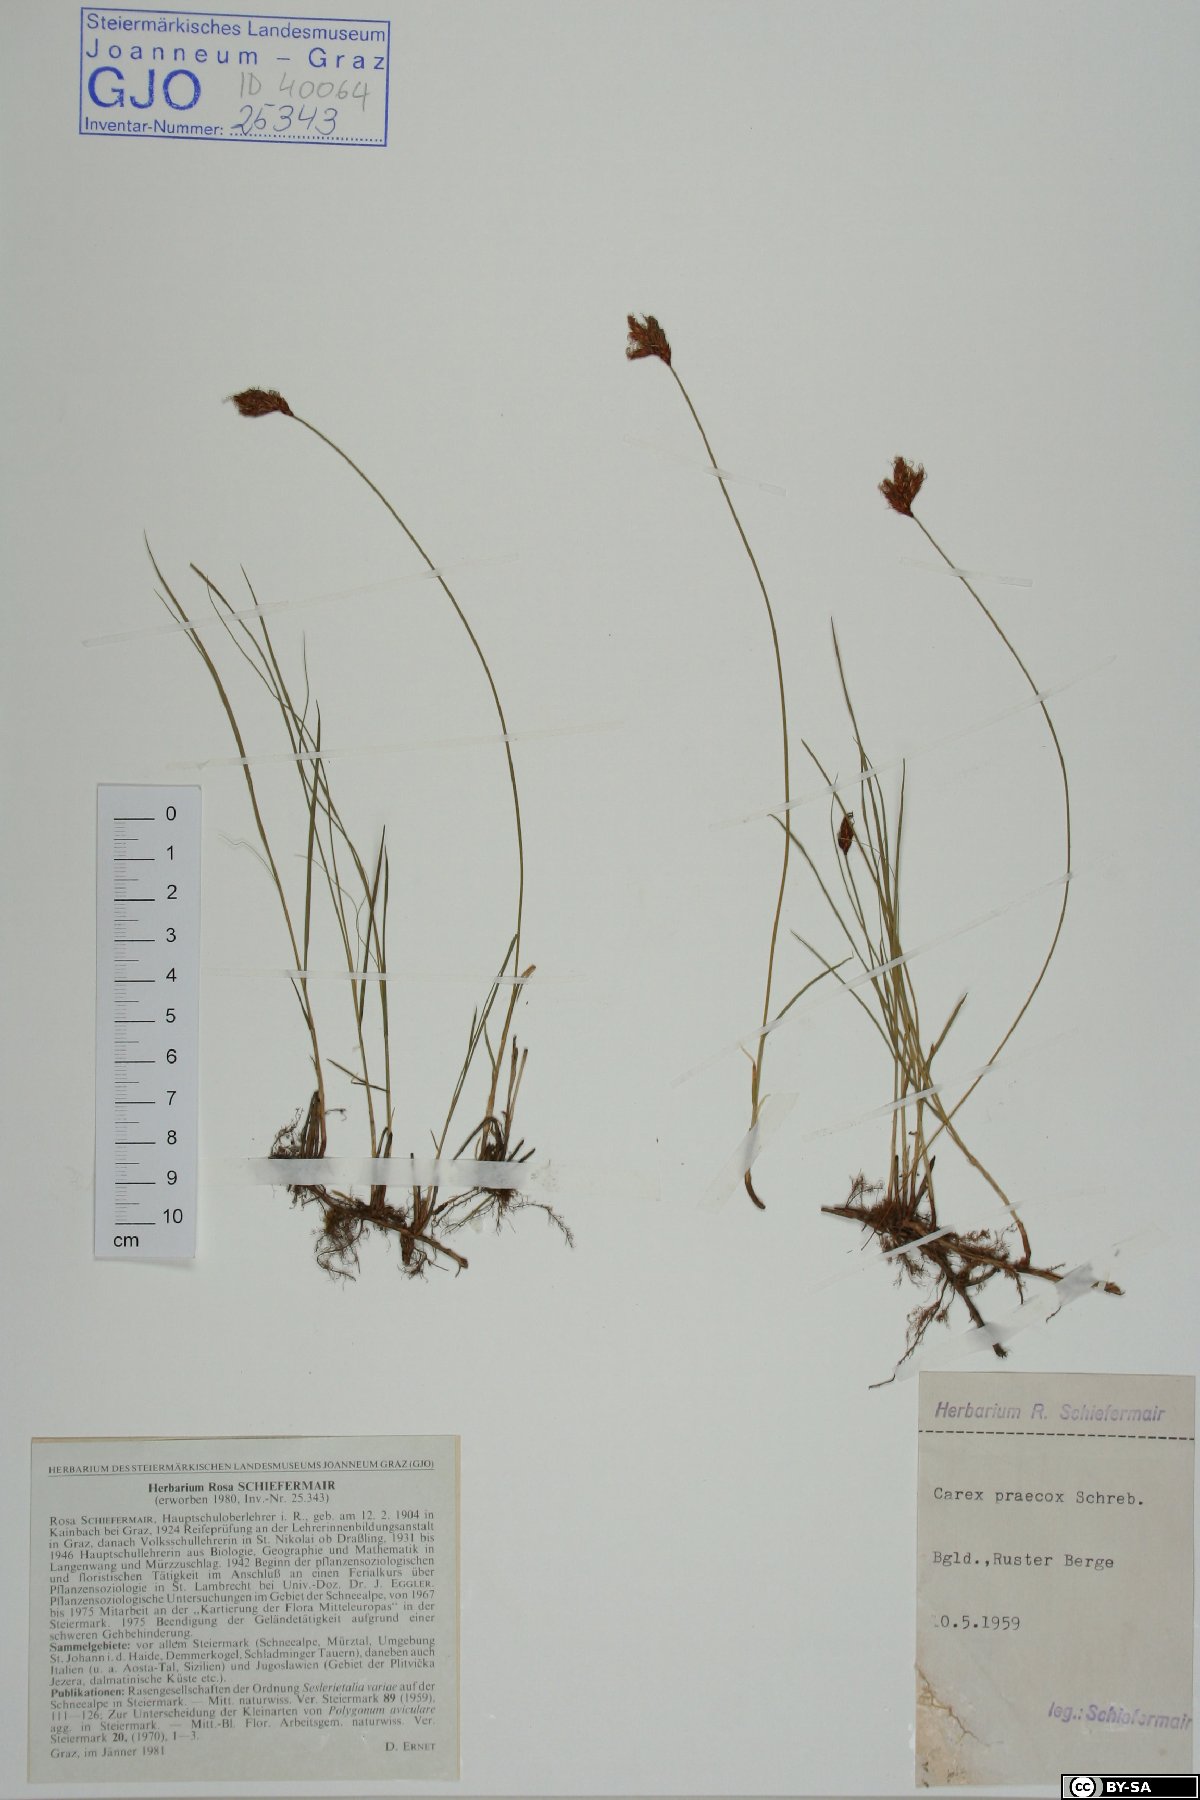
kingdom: Plantae
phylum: Tracheophyta
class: Liliopsida
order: Poales
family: Cyperaceae
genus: Carex
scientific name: Carex praecox
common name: Early sedge
